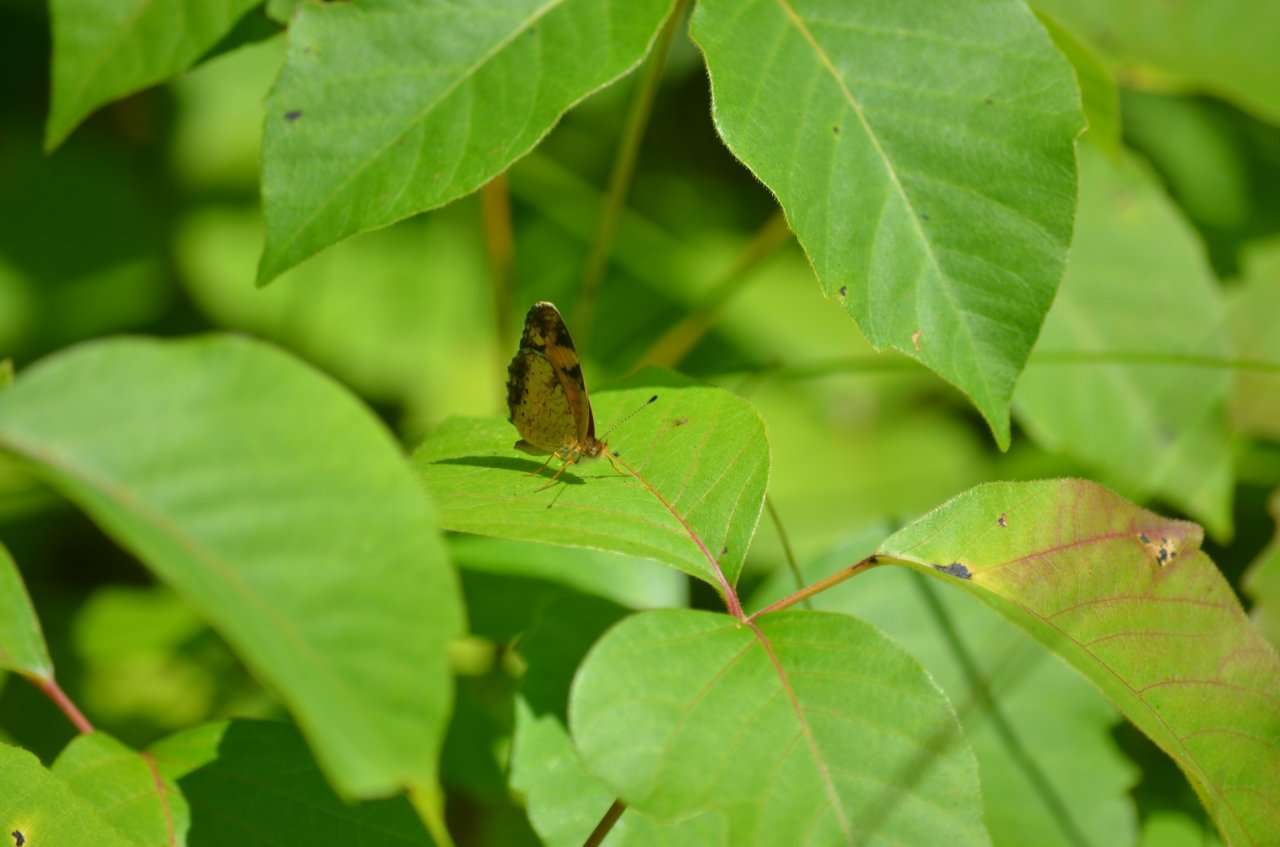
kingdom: Animalia
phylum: Arthropoda
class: Insecta
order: Lepidoptera
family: Nymphalidae
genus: Phyciodes
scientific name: Phyciodes tharos
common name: Pearl Crescent
